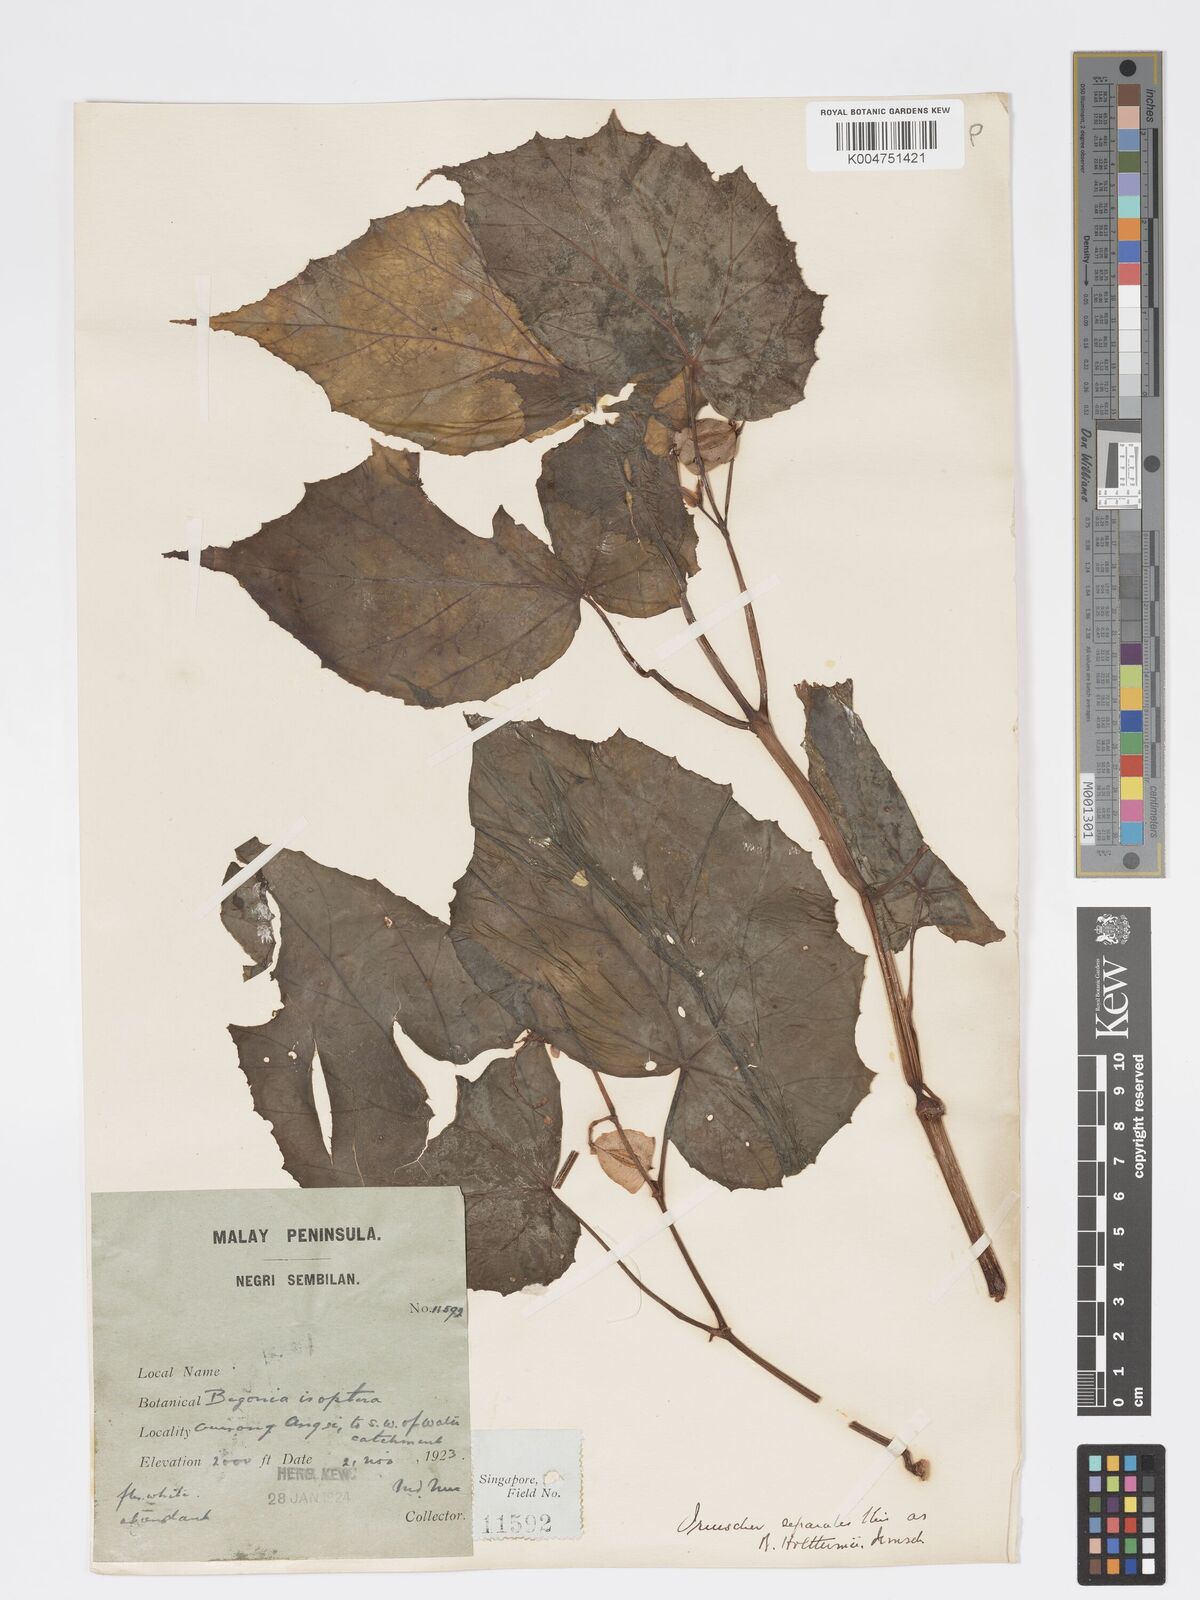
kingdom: Plantae
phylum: Tracheophyta
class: Magnoliopsida
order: Cucurbitales
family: Begoniaceae
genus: Begonia
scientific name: Begonia holttumii
